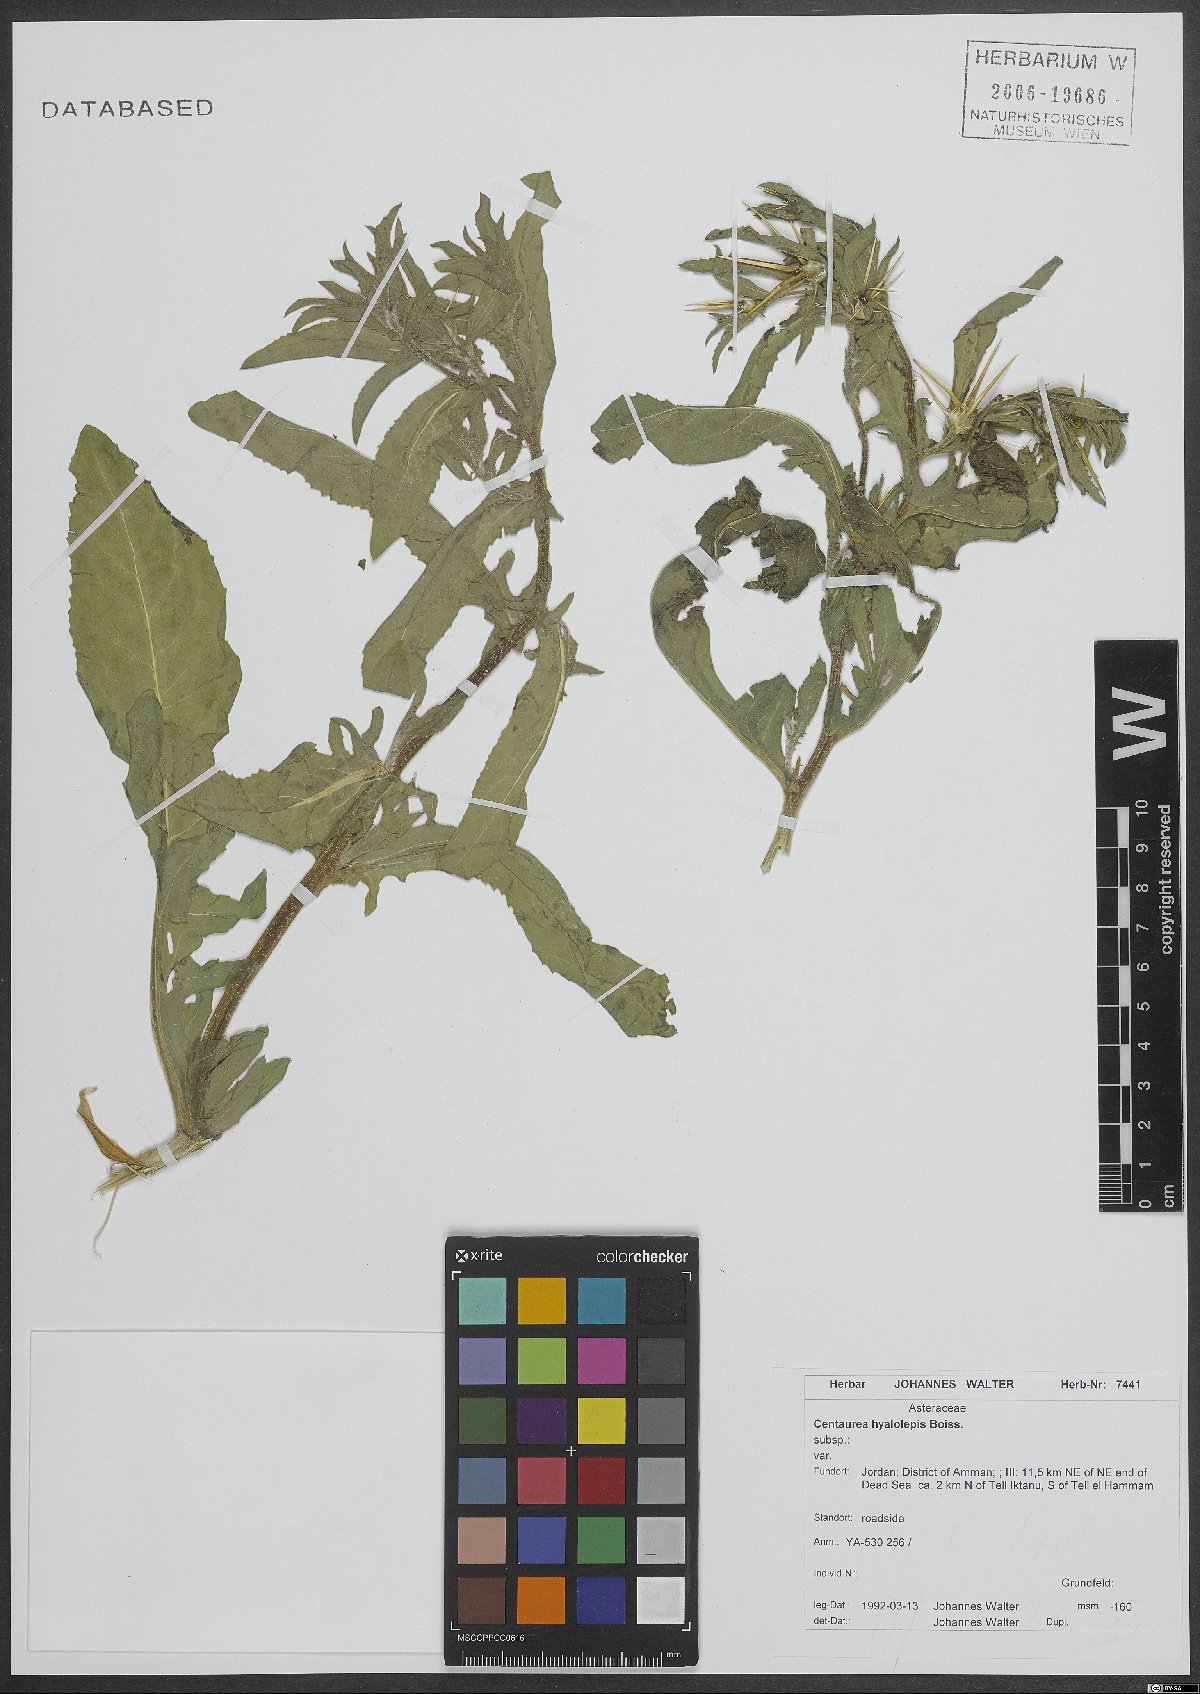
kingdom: Plantae
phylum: Tracheophyta
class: Magnoliopsida
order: Asterales
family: Asteraceae
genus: Centaurea
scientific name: Centaurea hyalolepis
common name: Eastern star-thistle
